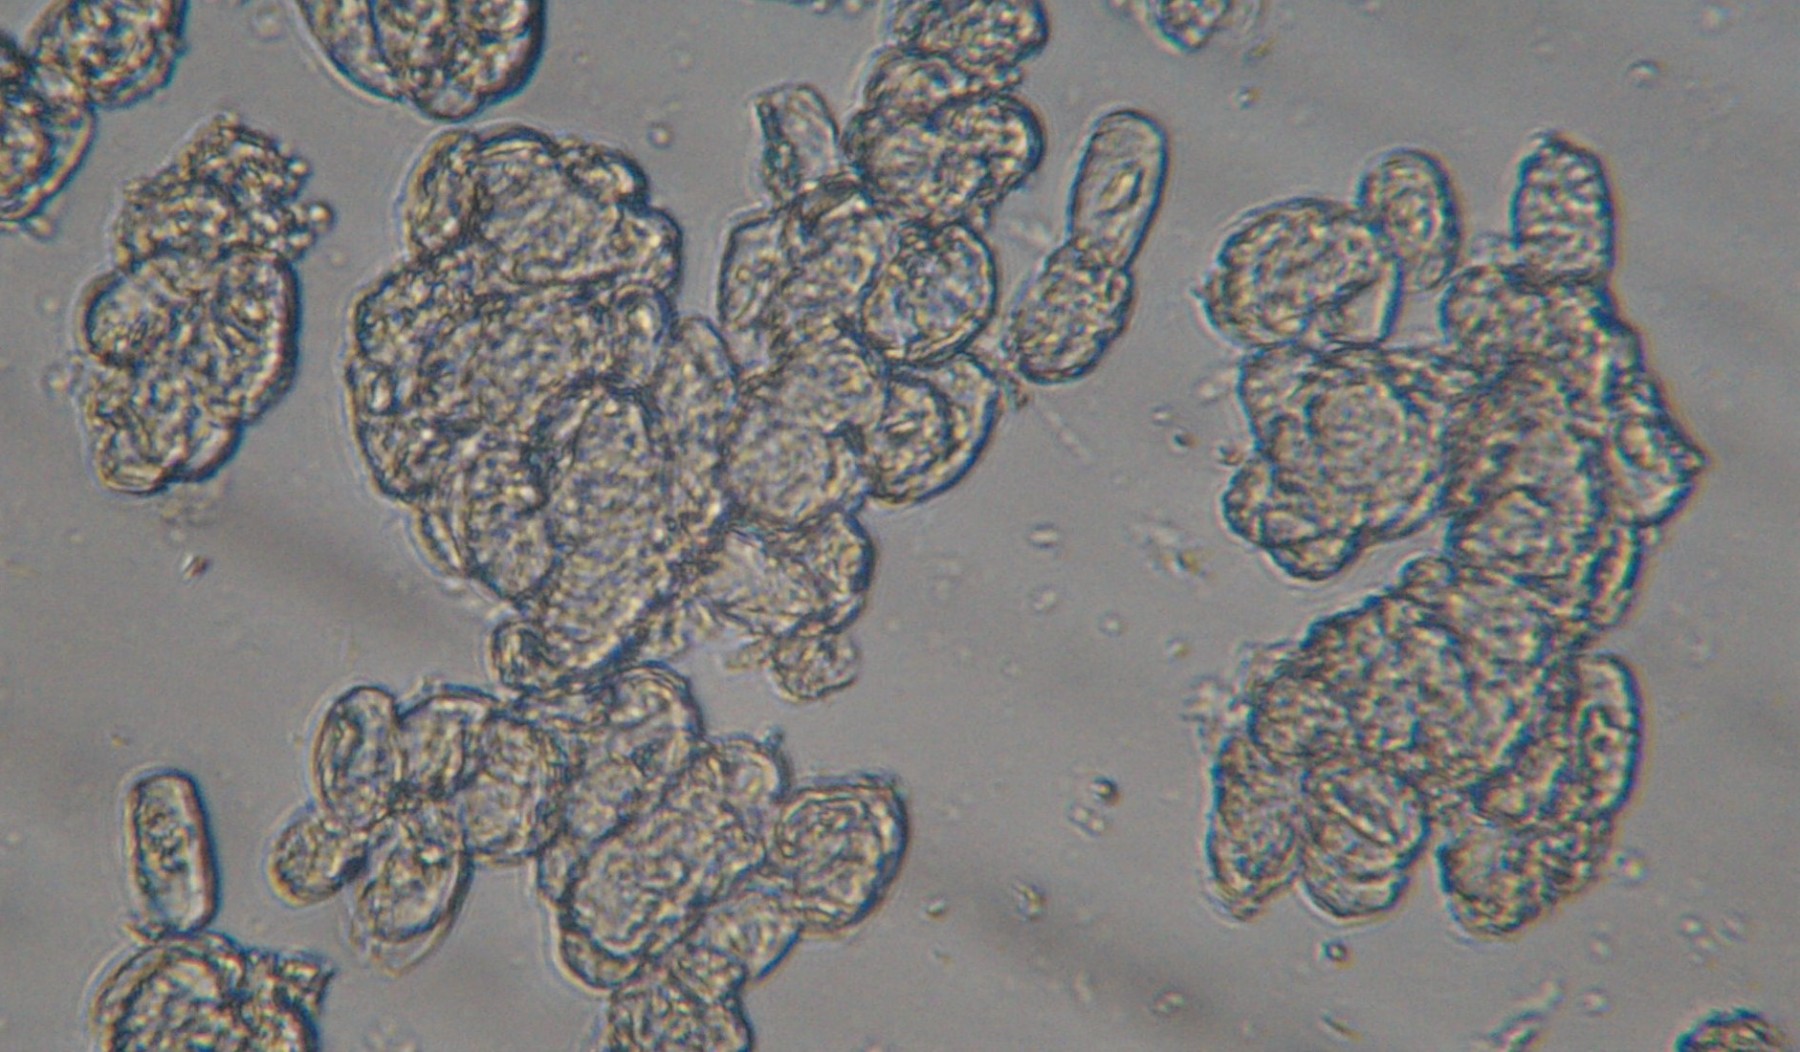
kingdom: Fungi
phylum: Ascomycota
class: Leotiomycetes
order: Helotiales
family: Erysiphaceae
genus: Podosphaera
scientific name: Podosphaera clandestina
